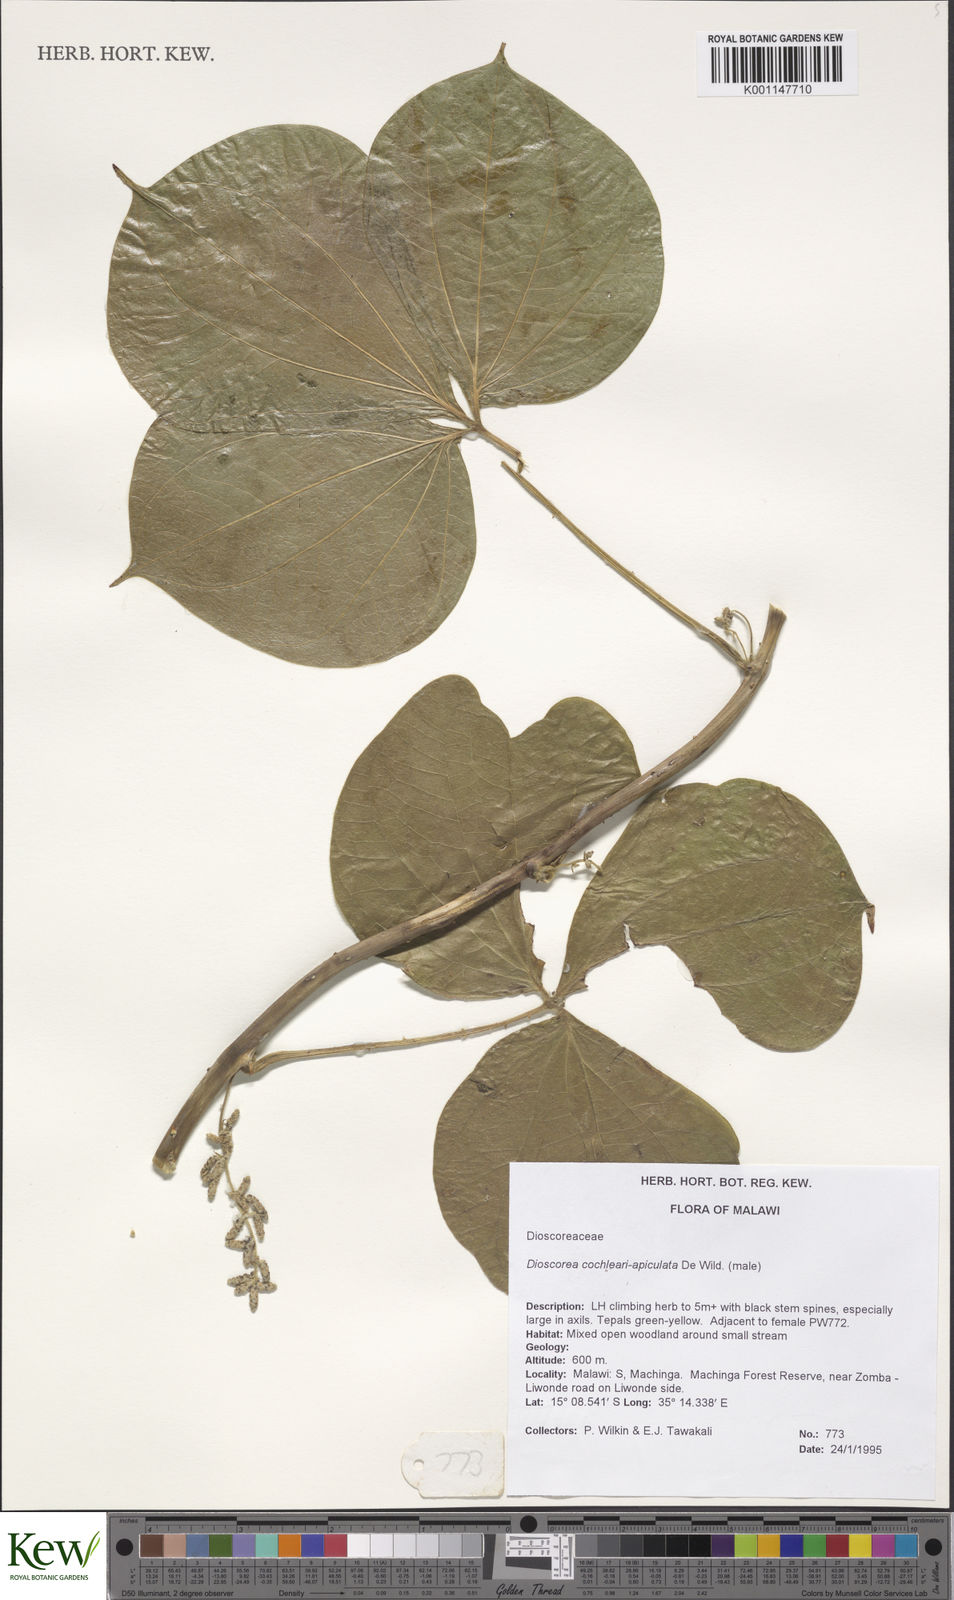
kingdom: Plantae
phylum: Tracheophyta
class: Liliopsida
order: Dioscoreales
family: Dioscoreaceae
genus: Dioscorea
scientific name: Dioscorea cochleariapiculata
